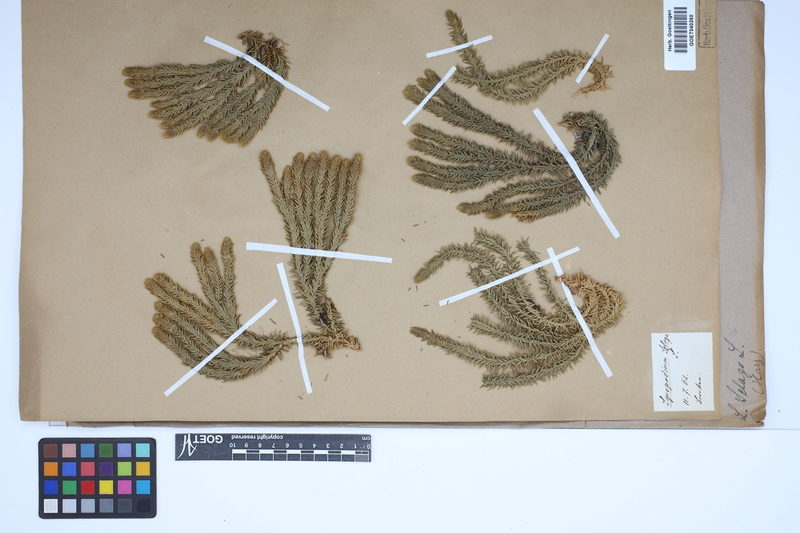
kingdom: Plantae
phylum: Tracheophyta
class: Lycopodiopsida
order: Lycopodiales
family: Lycopodiaceae
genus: Huperzia
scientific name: Huperzia selago
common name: Northern firmoss
